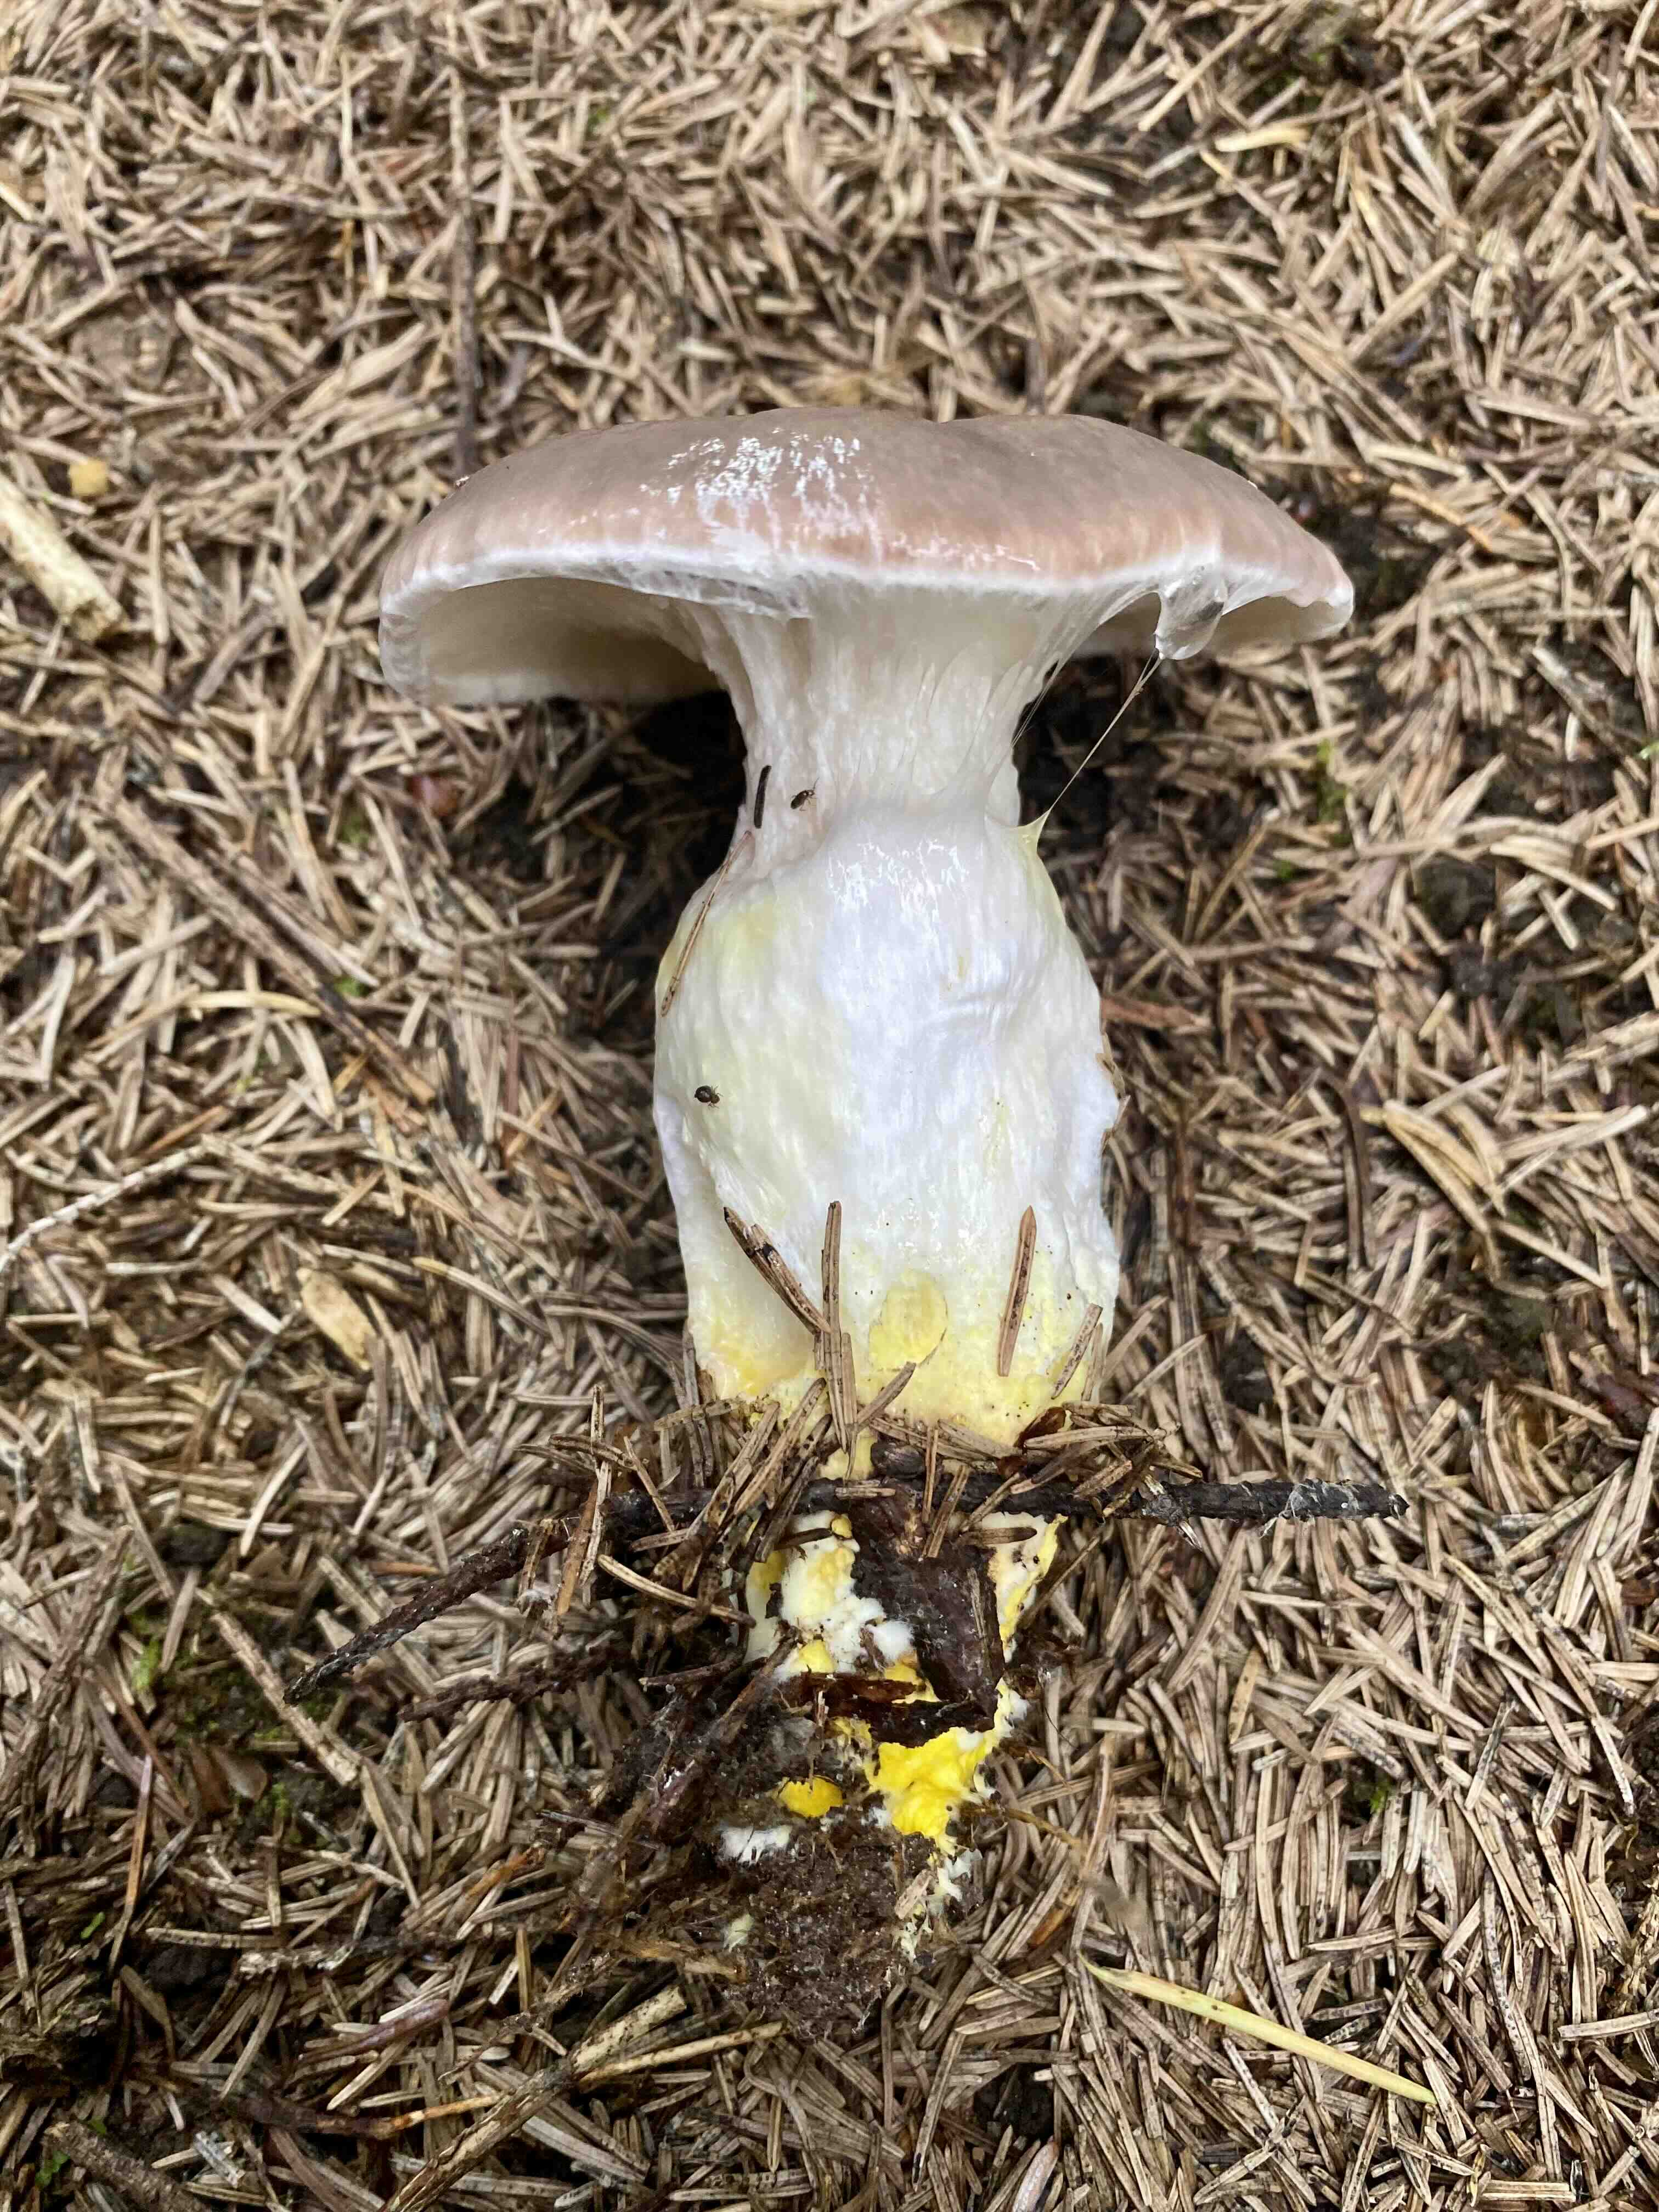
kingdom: Fungi
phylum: Basidiomycota
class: Agaricomycetes
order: Boletales
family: Gomphidiaceae
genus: Gomphidius
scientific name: Gomphidius glutinosus
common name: grå slimslør
